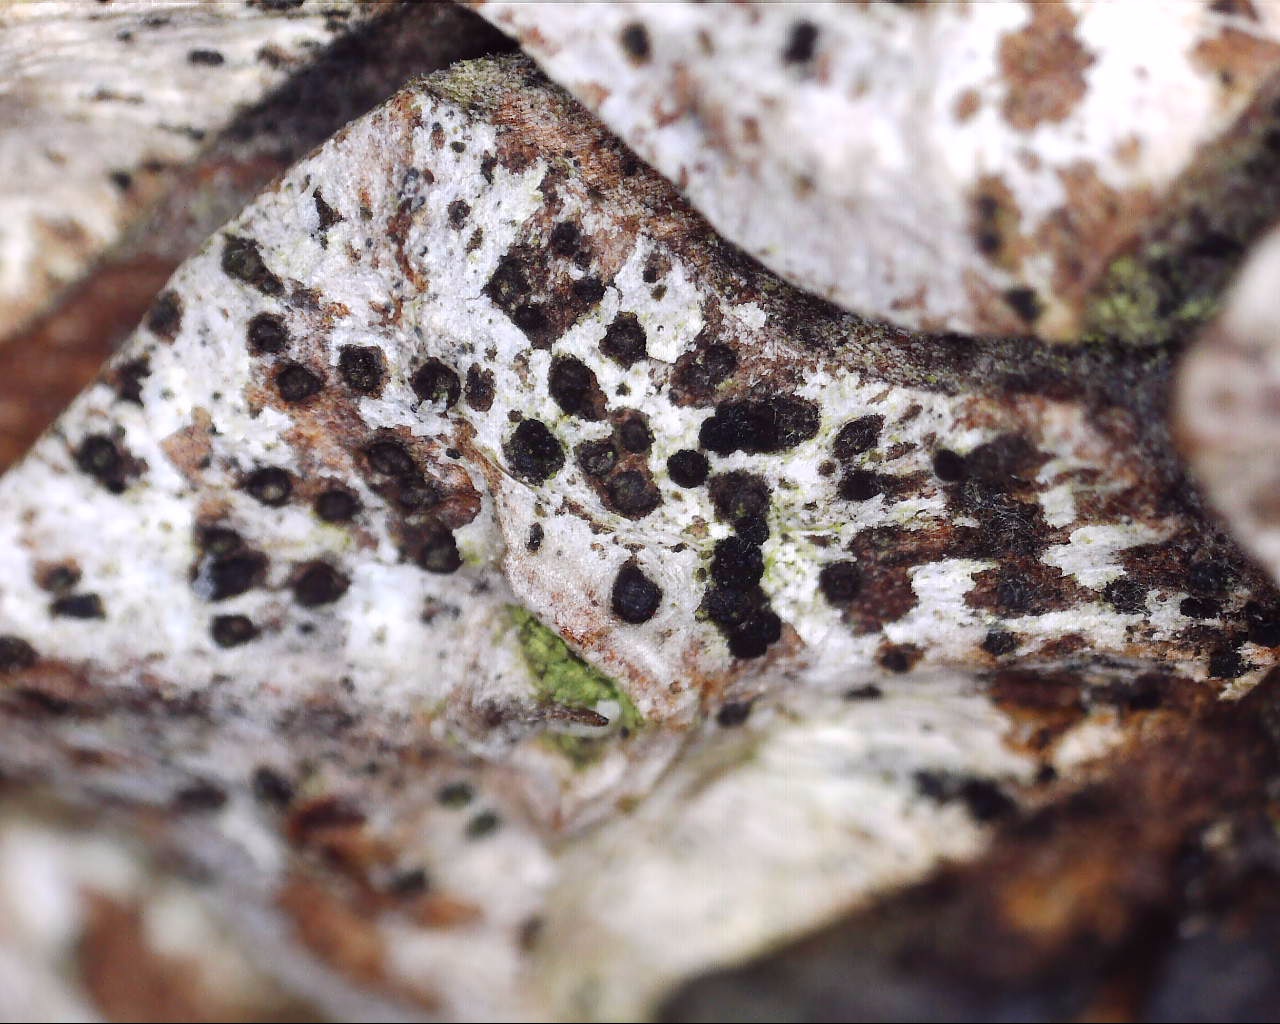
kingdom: Fungi
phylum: Ascomycota
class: Dothideomycetes
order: Botryosphaeriales
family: Botryosphaeriaceae
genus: Sphaeropsis
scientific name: Sphaeropsis sapinea
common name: Sphaeropsis blight
